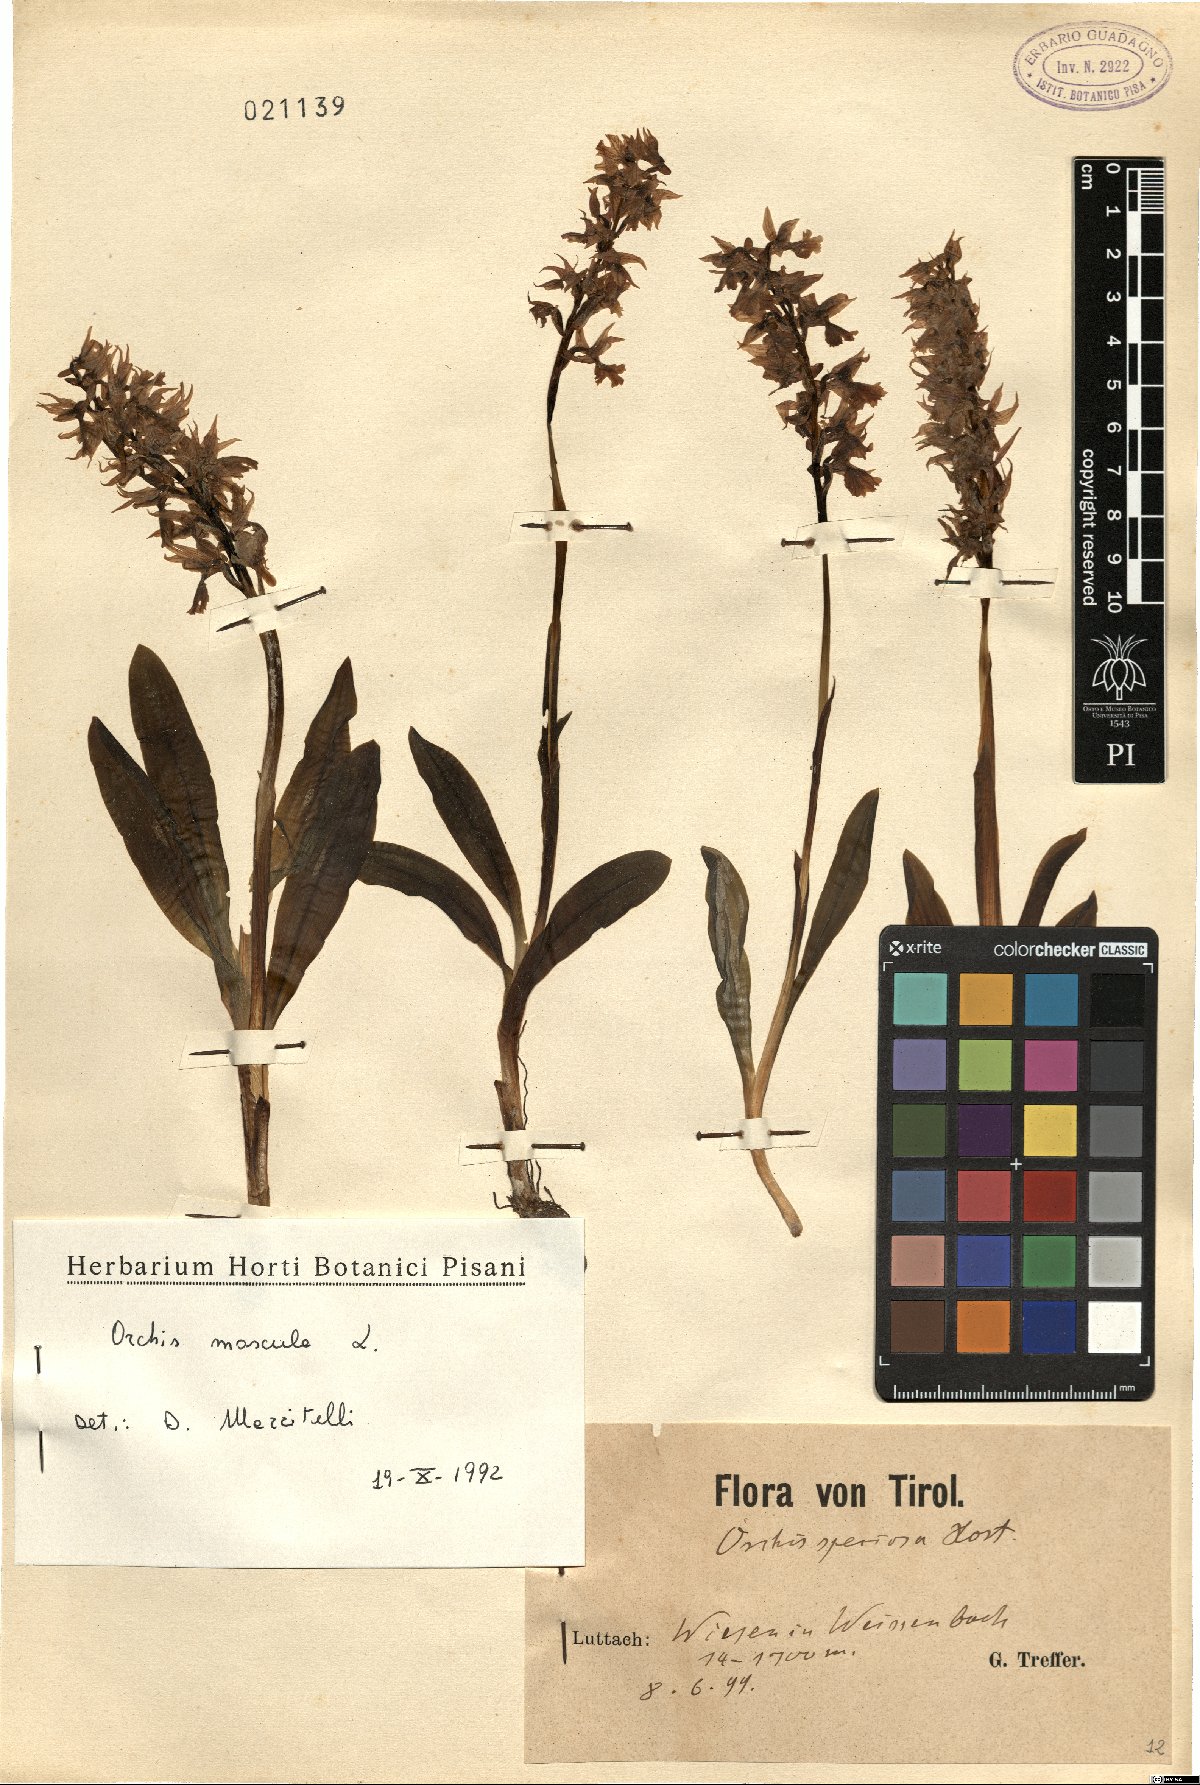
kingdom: Plantae
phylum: Tracheophyta
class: Liliopsida
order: Asparagales
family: Orchidaceae
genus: Orchis
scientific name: Orchis mascula
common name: Early-purple orchid
